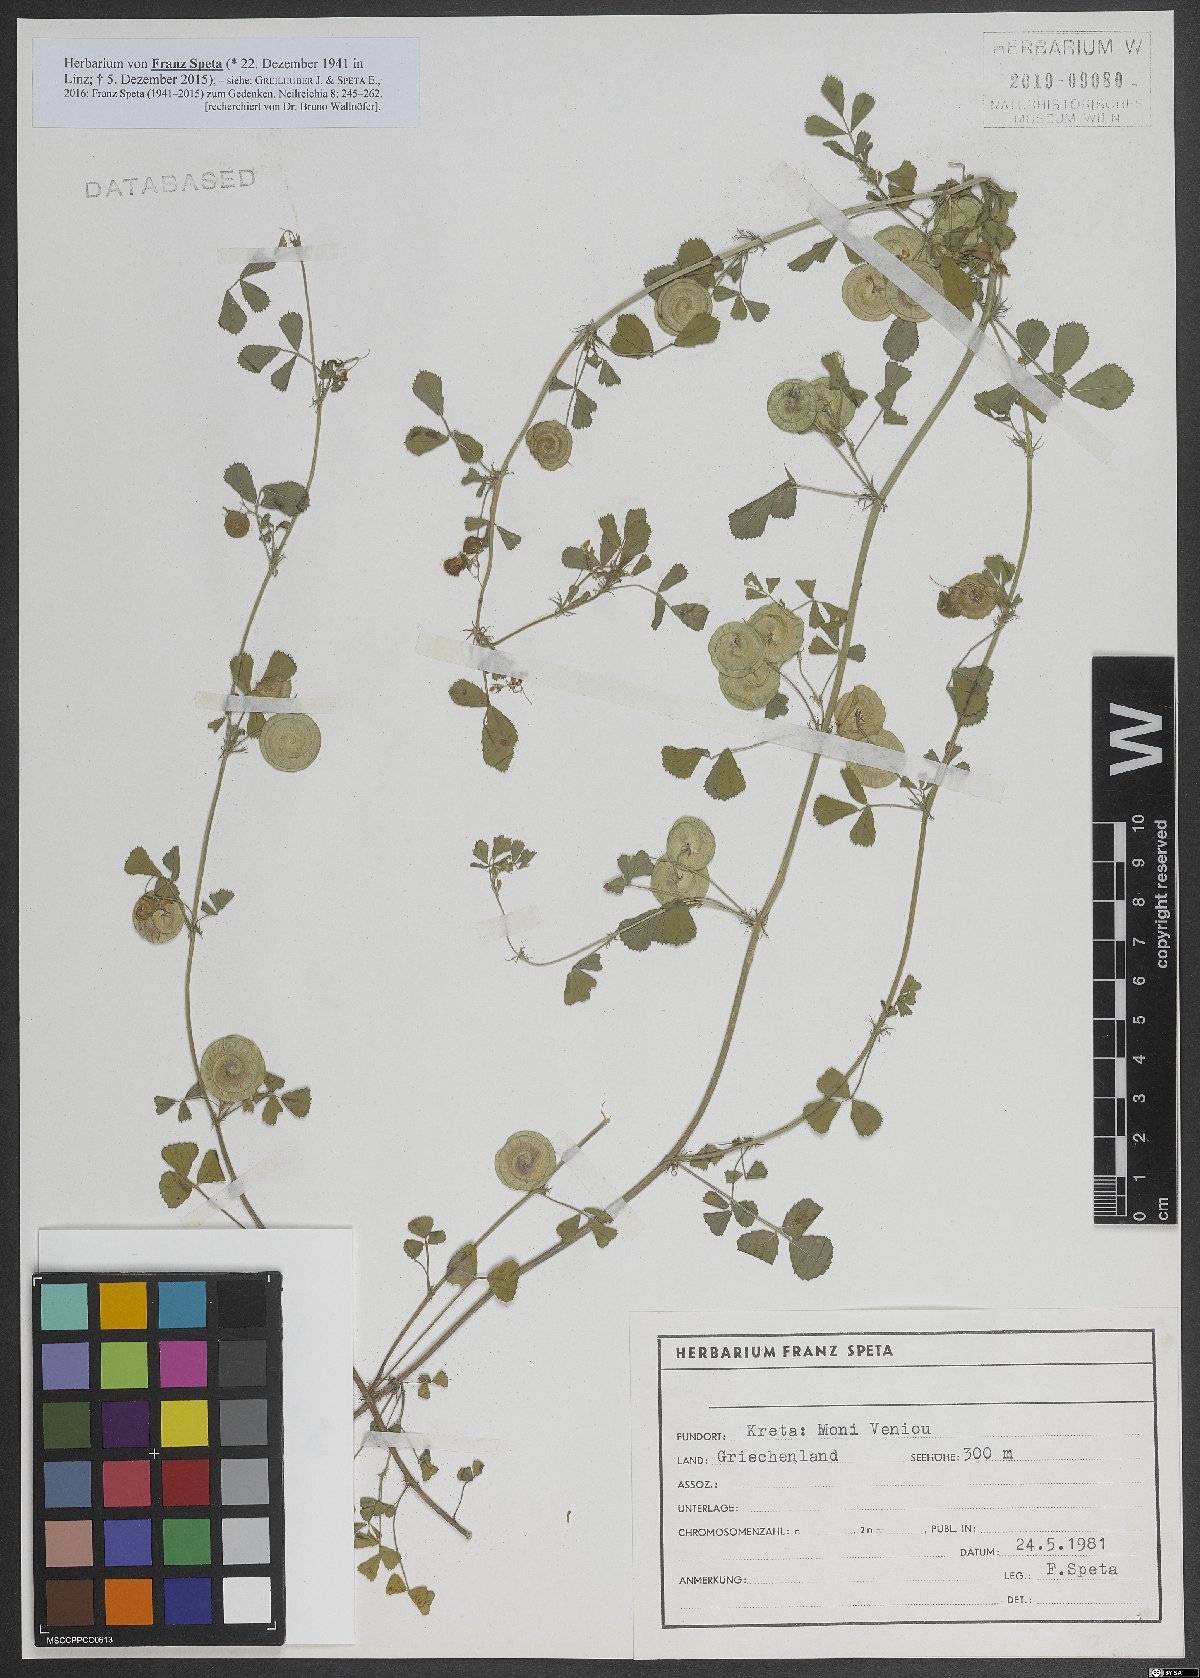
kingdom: Plantae
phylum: Tracheophyta
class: Magnoliopsida
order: Fabales
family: Fabaceae
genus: Medicago
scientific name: Medicago orbicularis
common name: Button medick
